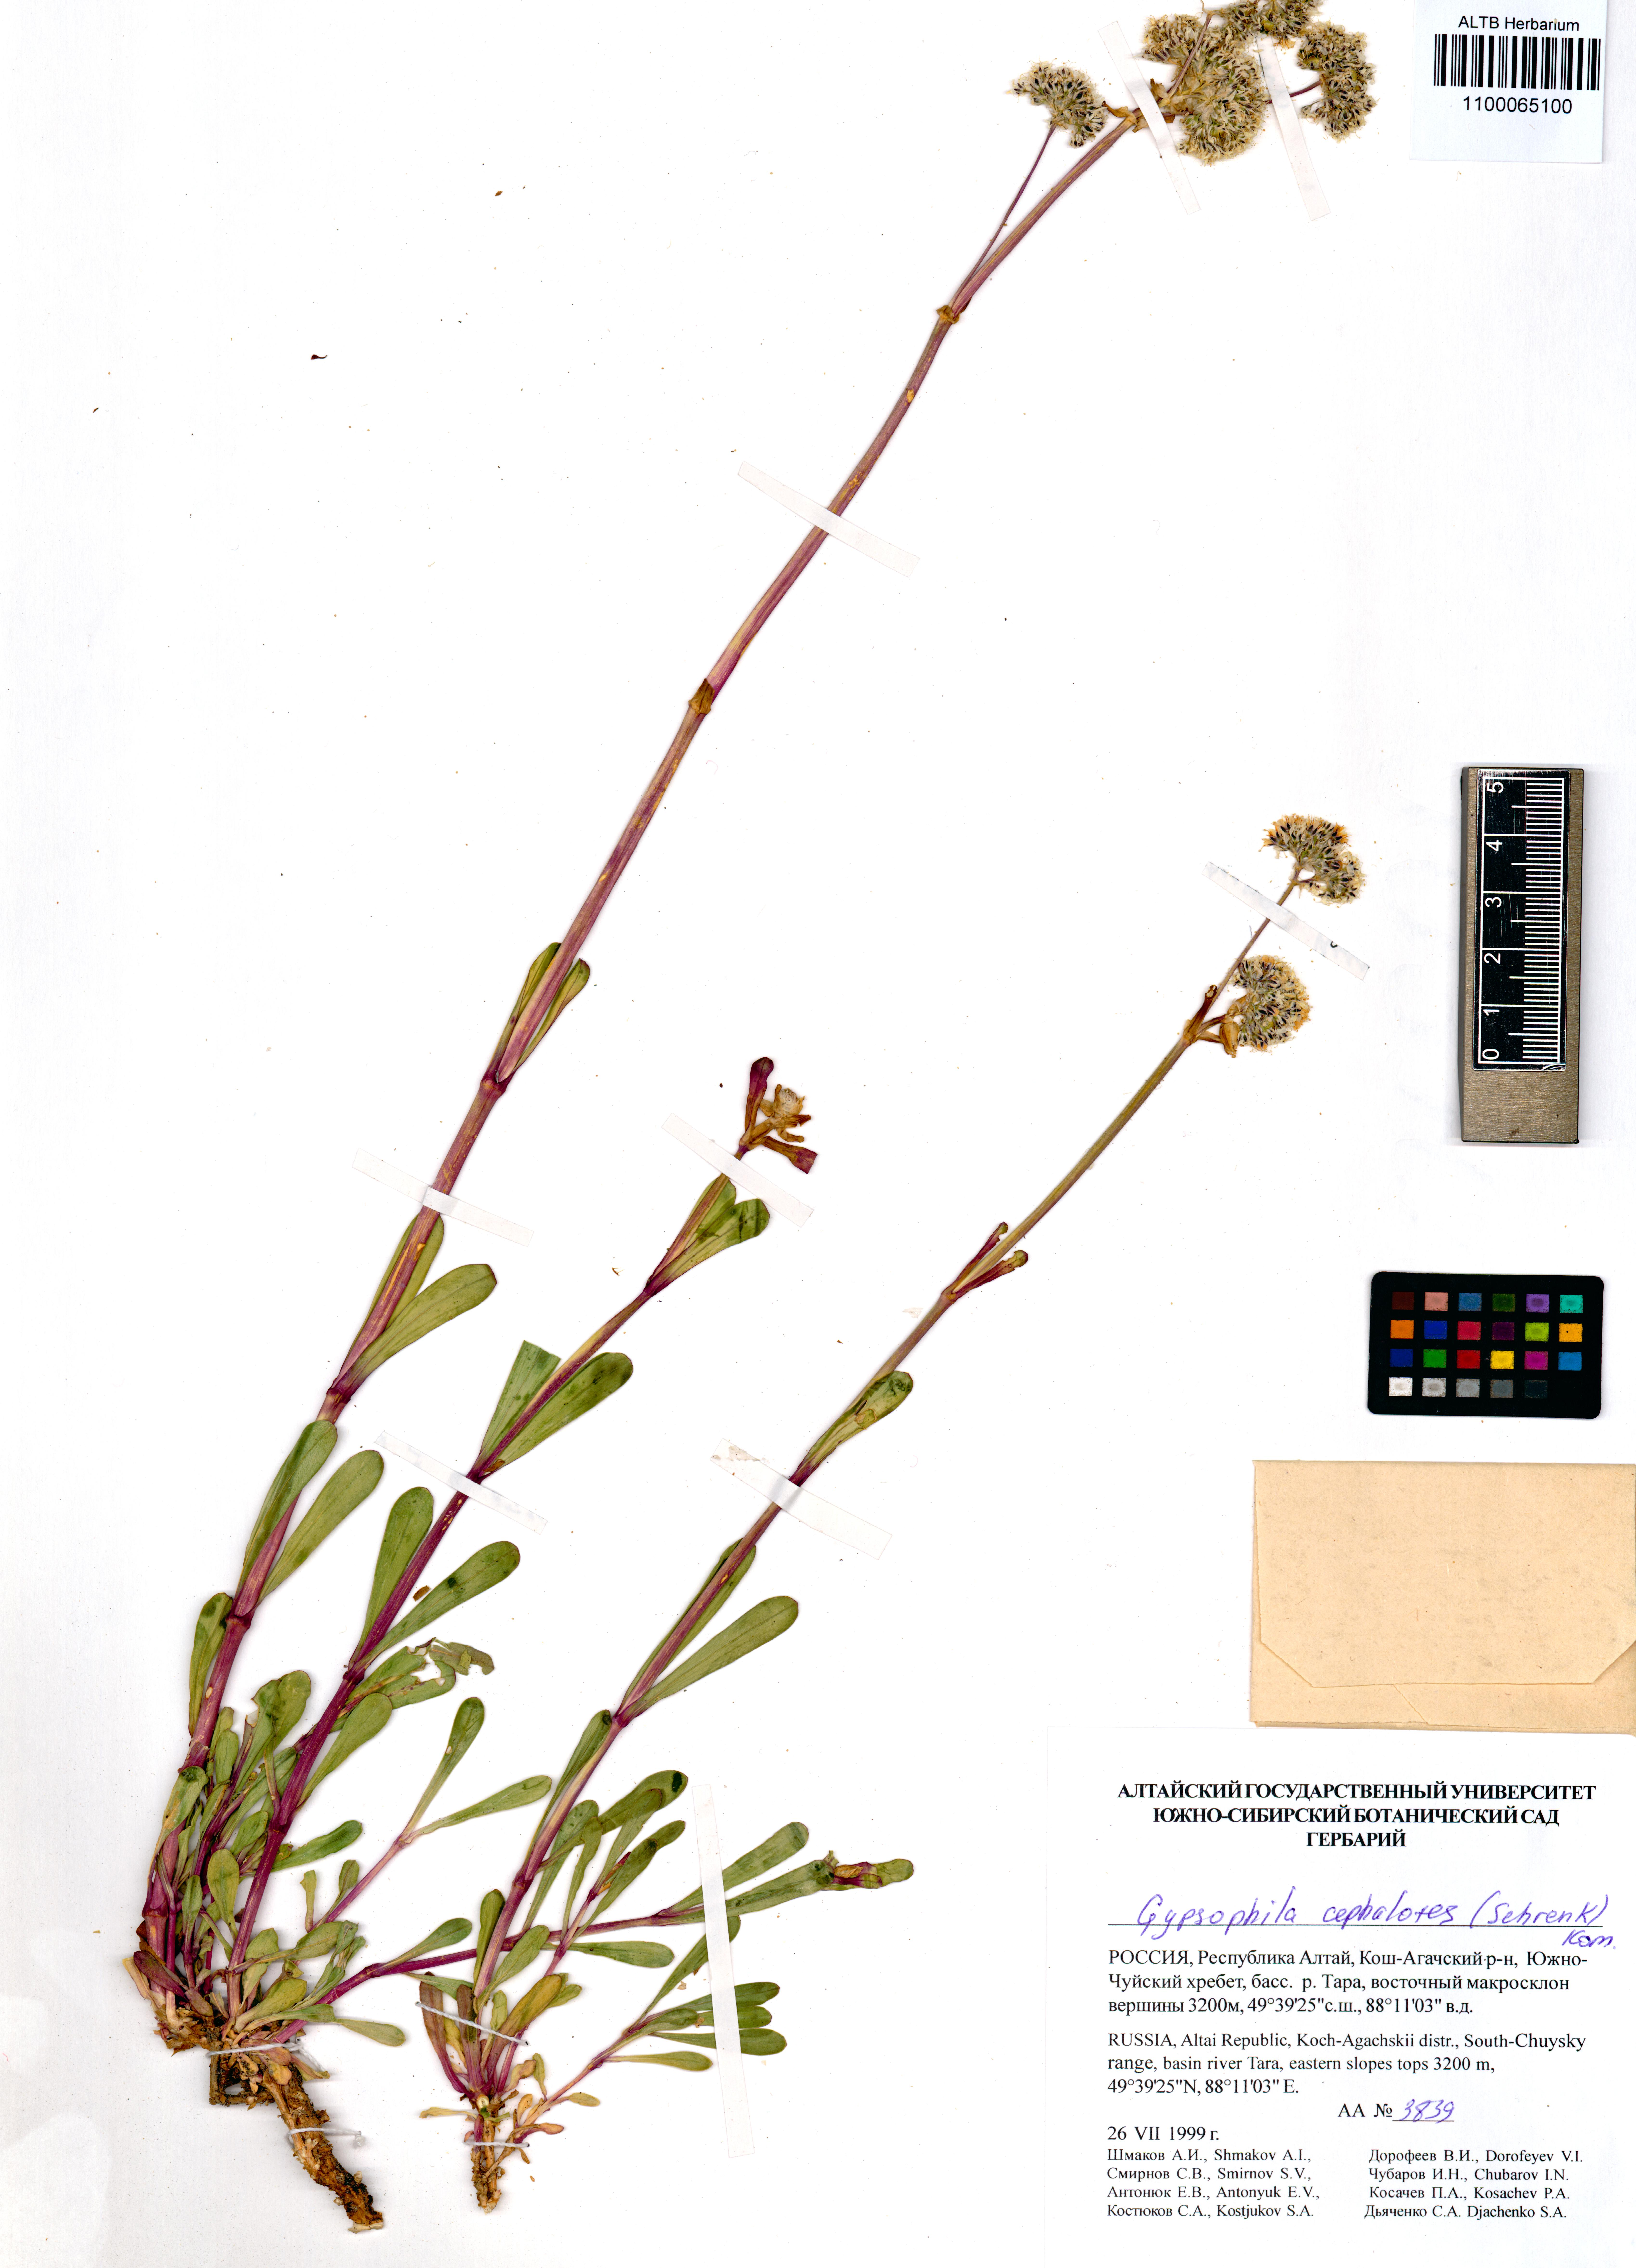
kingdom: Plantae
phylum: Tracheophyta
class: Magnoliopsida
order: Caryophyllales
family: Caryophyllaceae
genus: Gypsophila
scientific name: Gypsophila cephalotes
